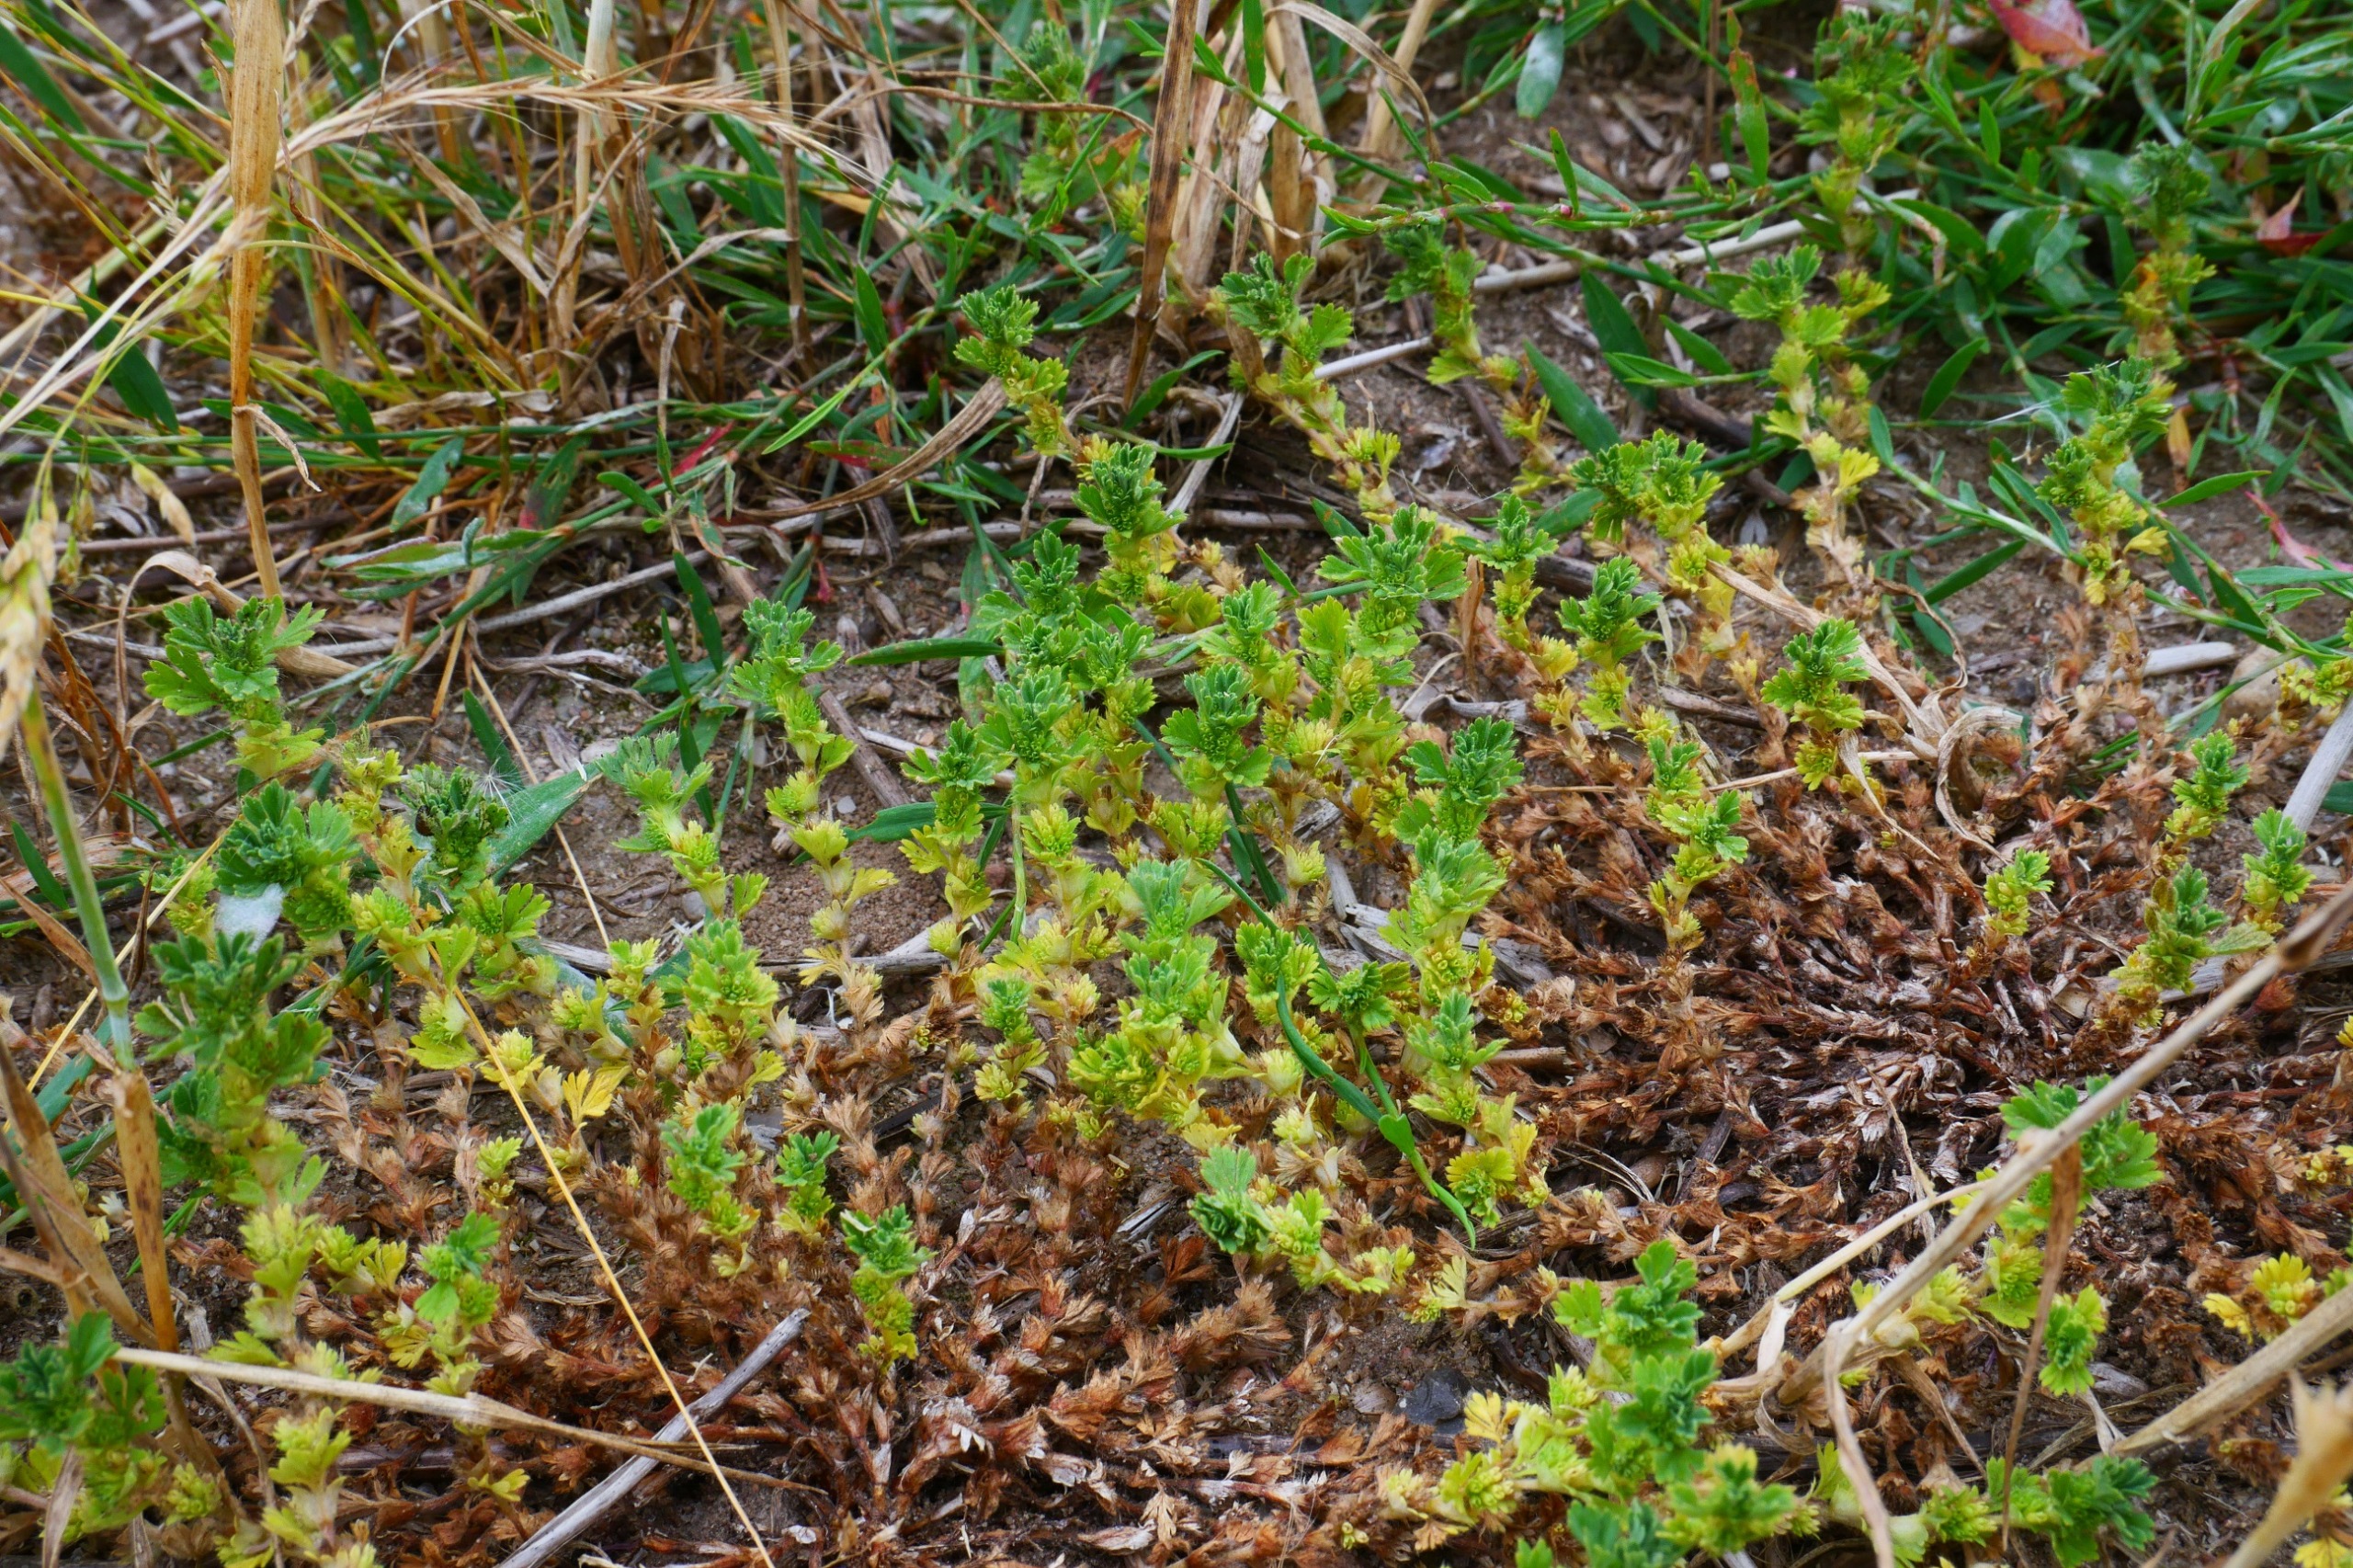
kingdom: Plantae
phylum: Tracheophyta
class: Magnoliopsida
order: Rosales
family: Rosaceae
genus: Aphanes
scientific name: Aphanes arvensis
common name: Dværgløvefod
